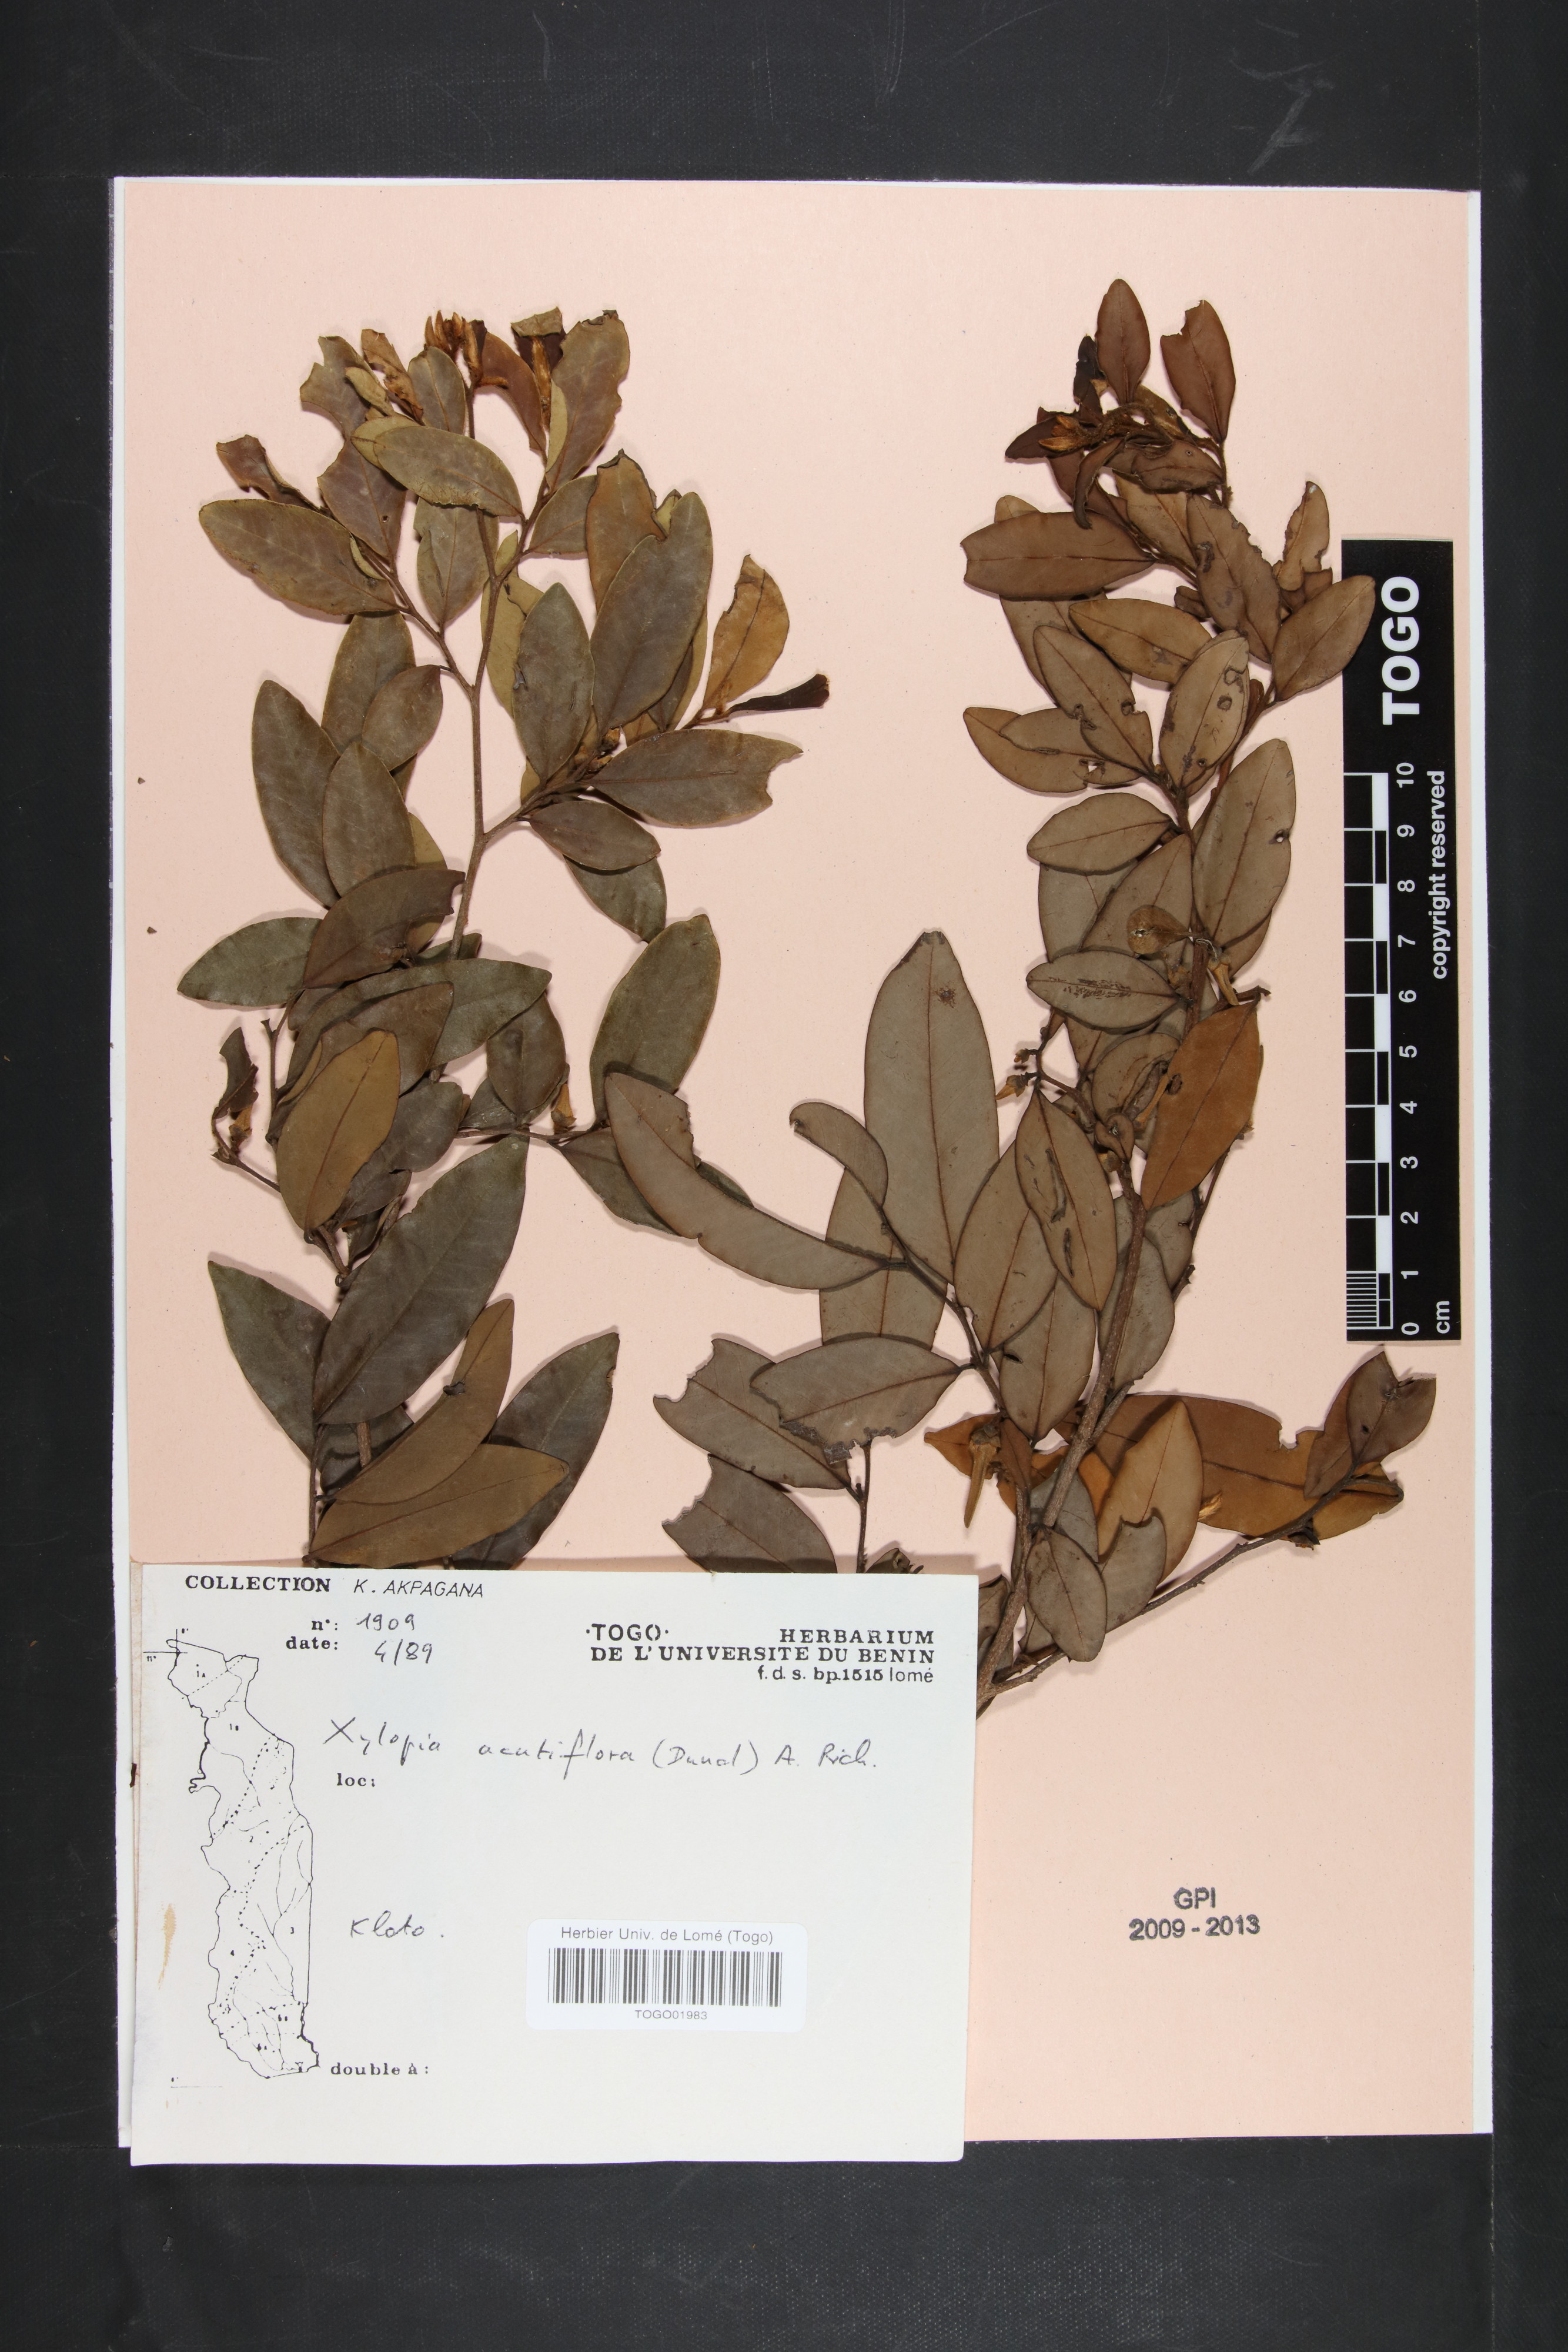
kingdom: Plantae
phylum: Tracheophyta
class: Magnoliopsida
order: Magnoliales
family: Annonaceae
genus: Xylopia
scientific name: Xylopia acutiflora
